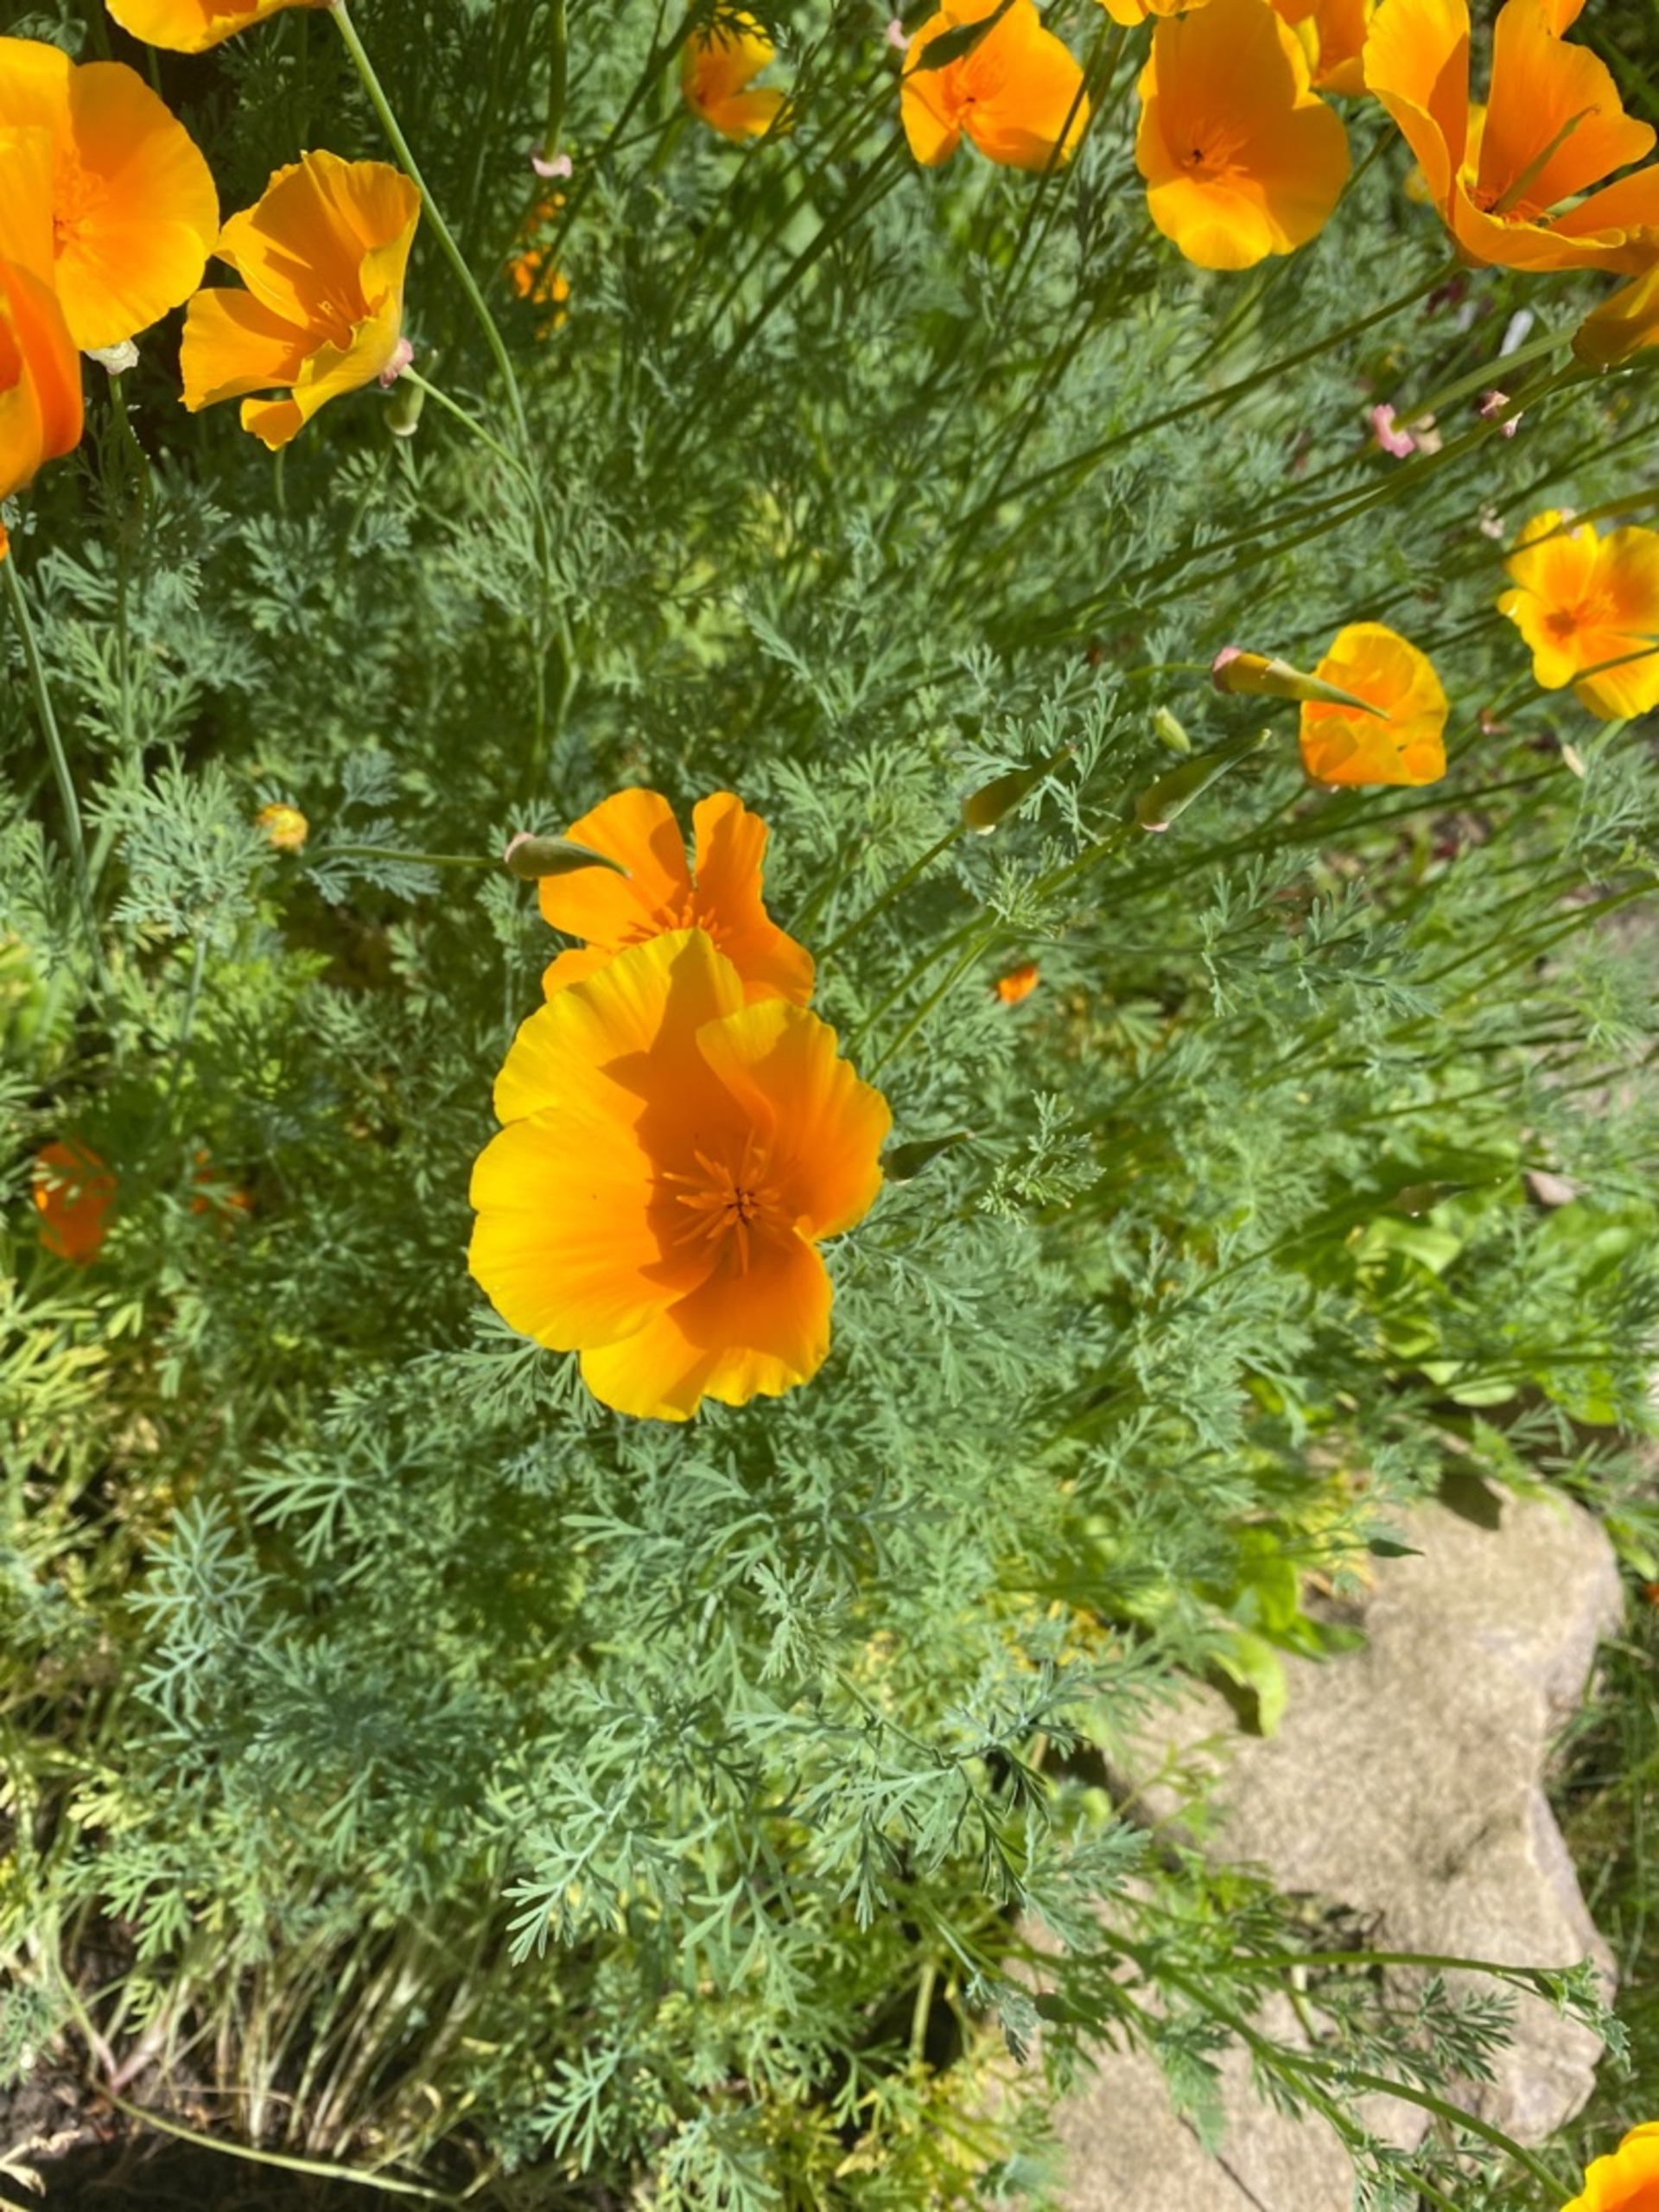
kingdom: Plantae
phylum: Tracheophyta
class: Magnoliopsida
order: Ranunculales
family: Papaveraceae
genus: Eschscholzia
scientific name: Eschscholzia californica
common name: Guldvalmue
